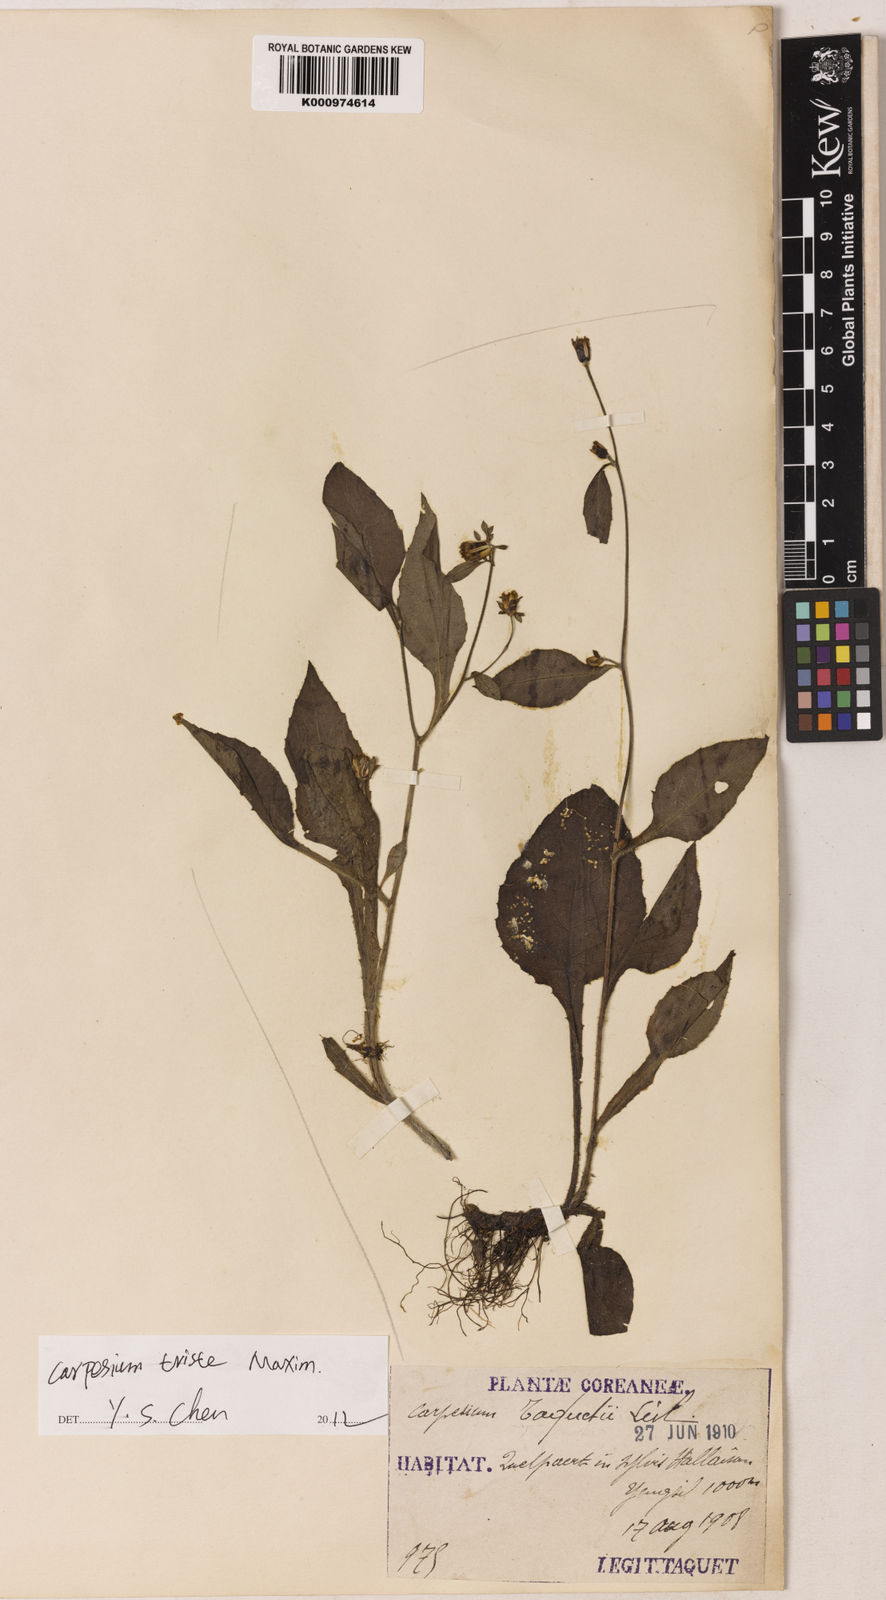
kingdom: Plantae
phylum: Tracheophyta
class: Magnoliopsida
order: Asterales
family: Asteraceae
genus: Carpesium
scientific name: Carpesium
